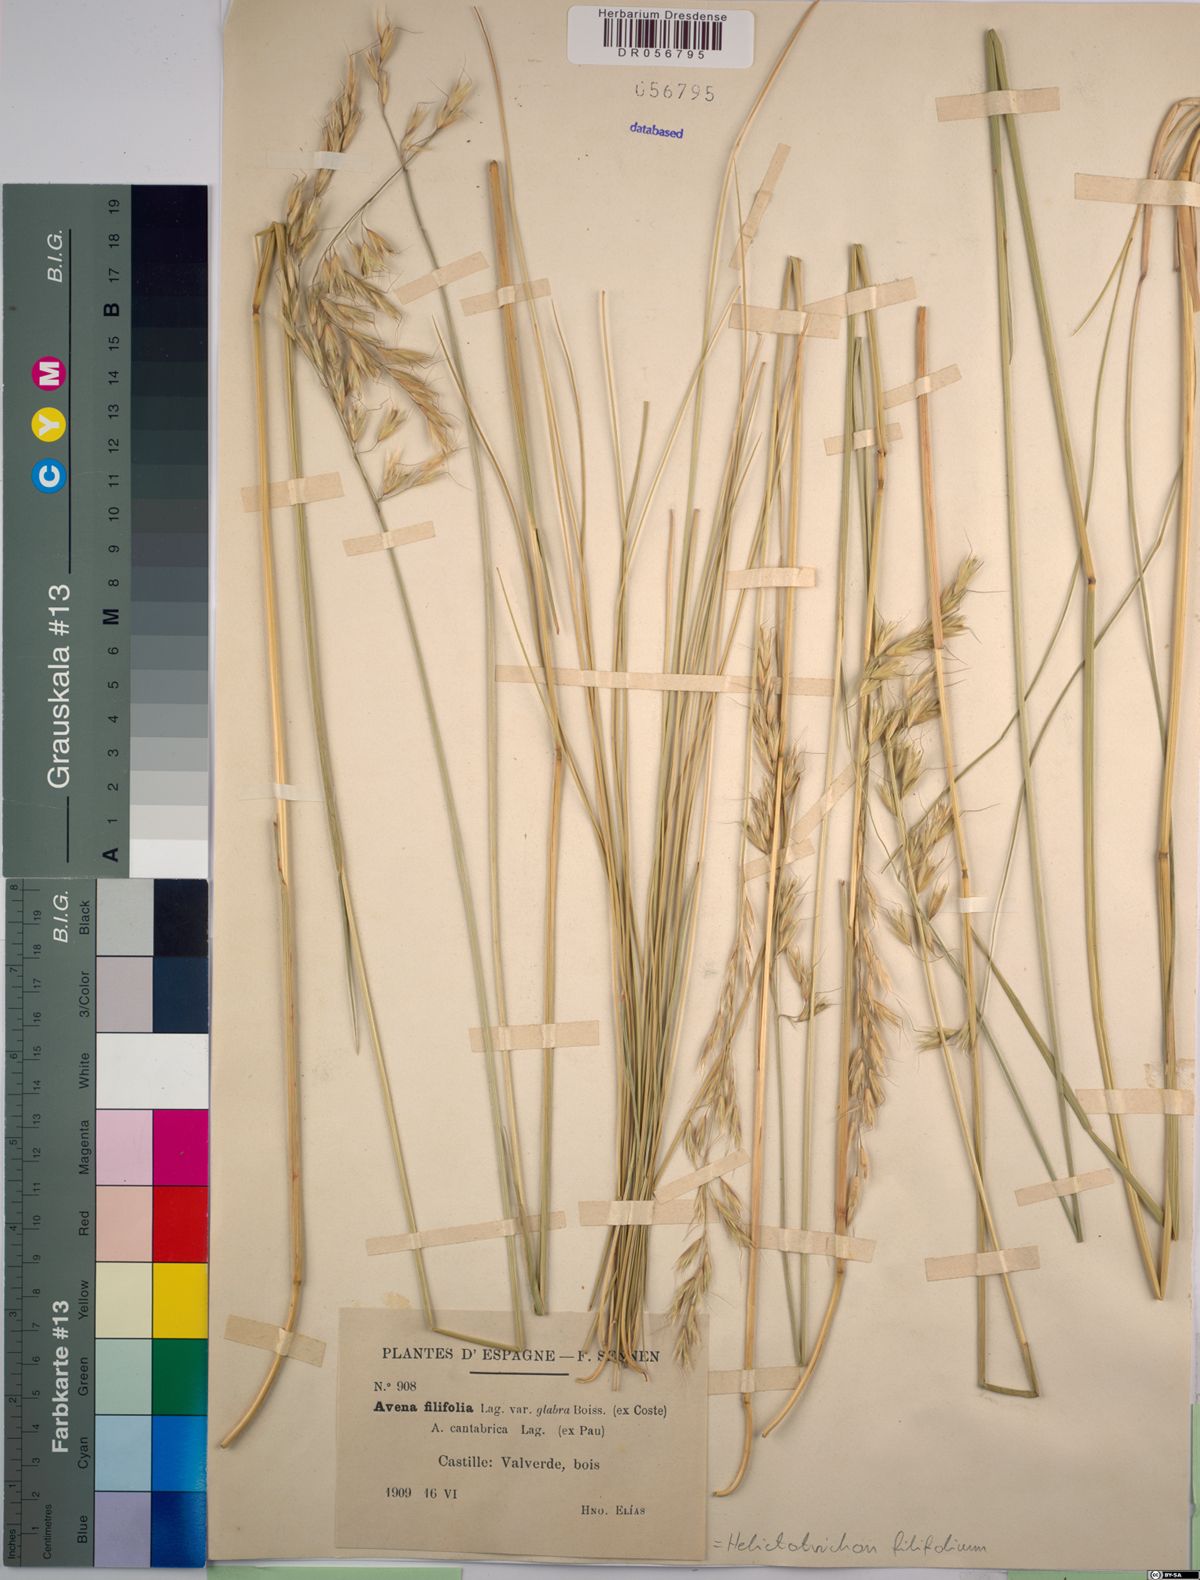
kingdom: Plantae
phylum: Tracheophyta
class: Liliopsida
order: Poales
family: Poaceae
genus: Helictotrichon
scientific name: Helictotrichon filifolium
